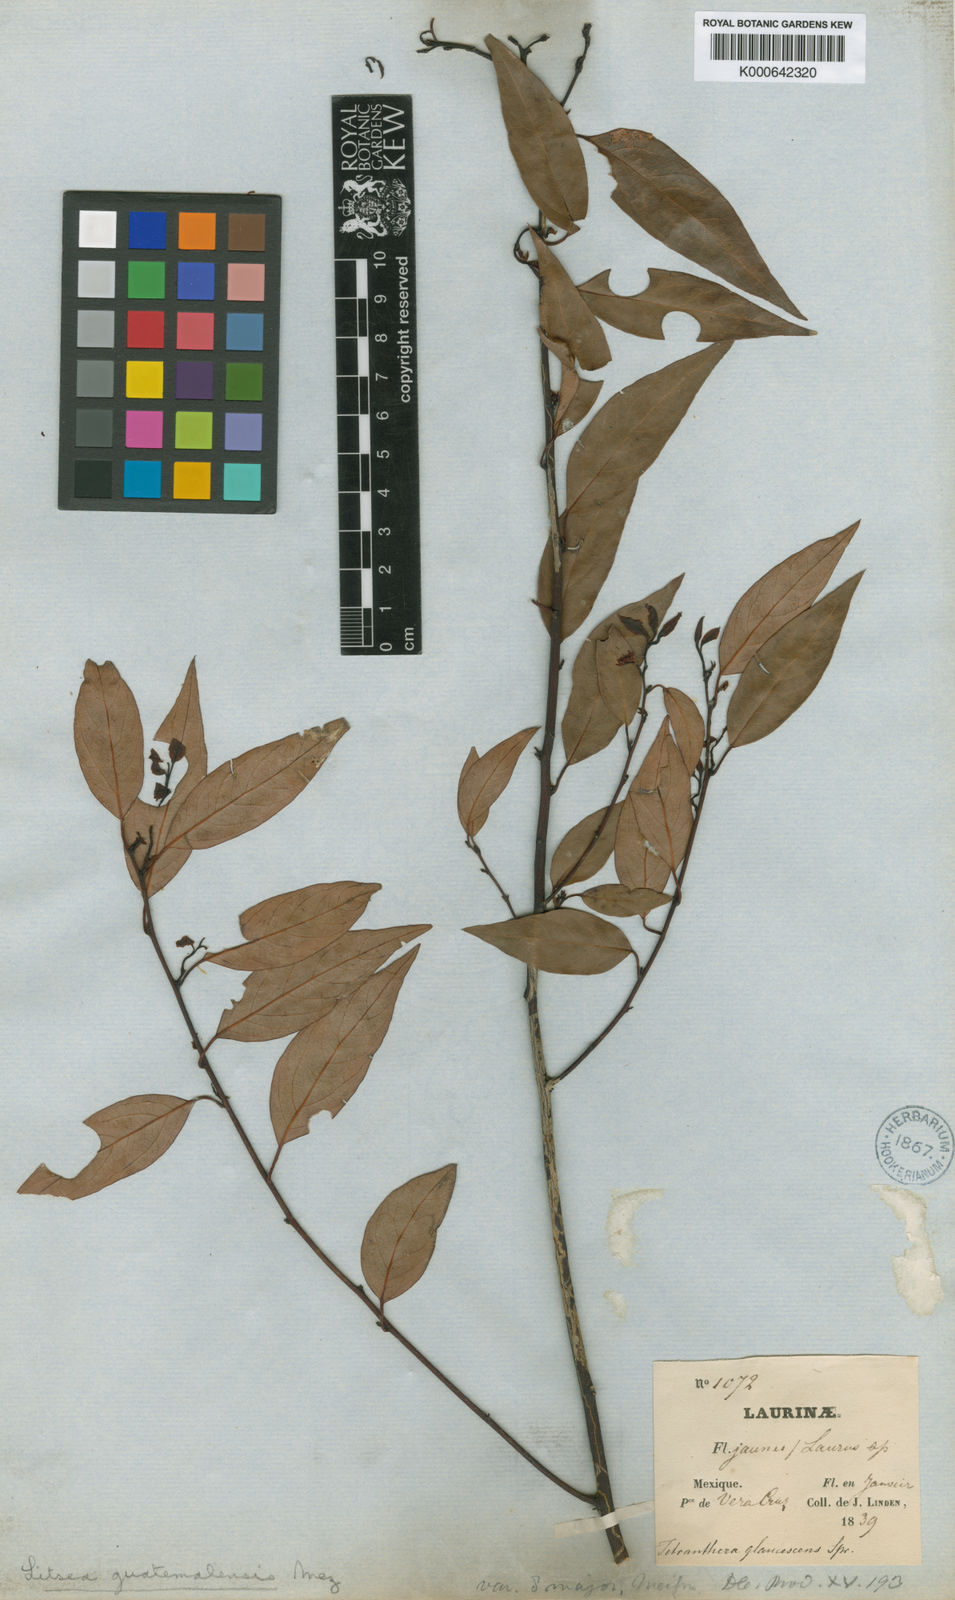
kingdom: Plantae
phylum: Tracheophyta
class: Magnoliopsida
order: Laurales
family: Lauraceae
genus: Licaria
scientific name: Licaria triandra
